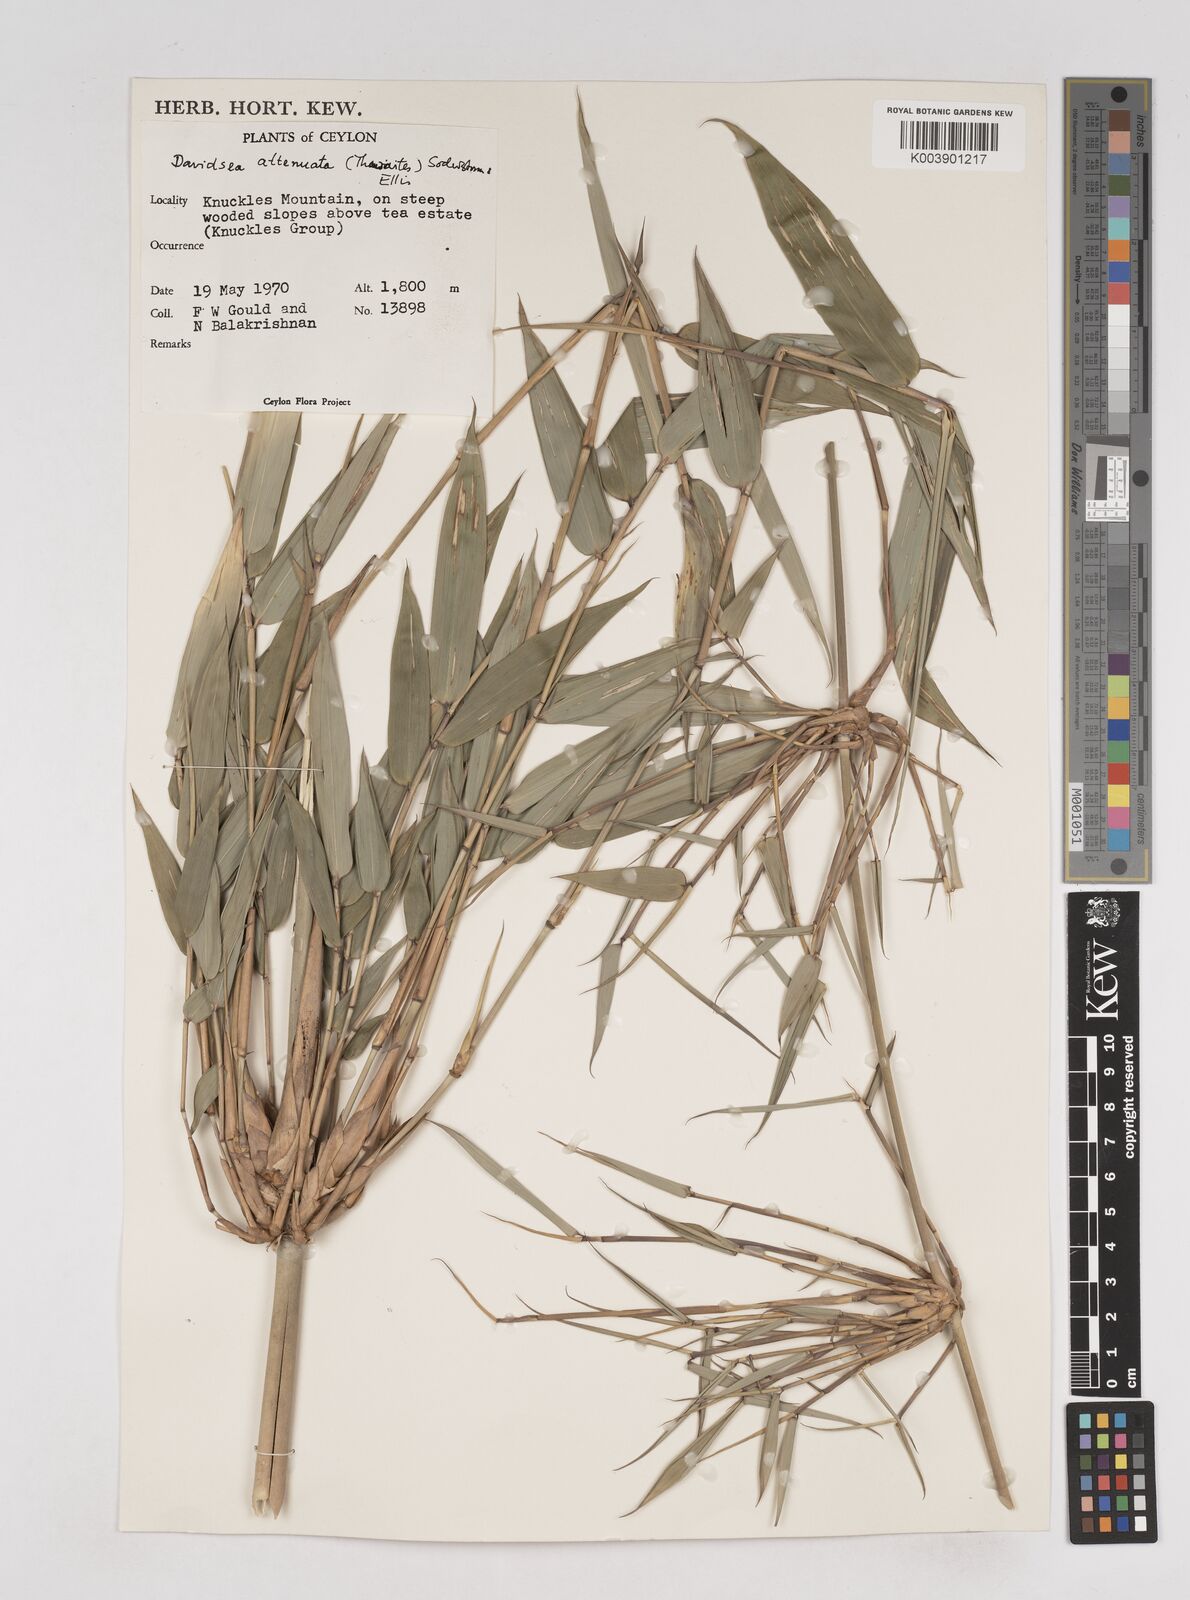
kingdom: Plantae
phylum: Tracheophyta
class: Liliopsida
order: Poales
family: Poaceae
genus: Davidsea
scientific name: Davidsea attenuata
